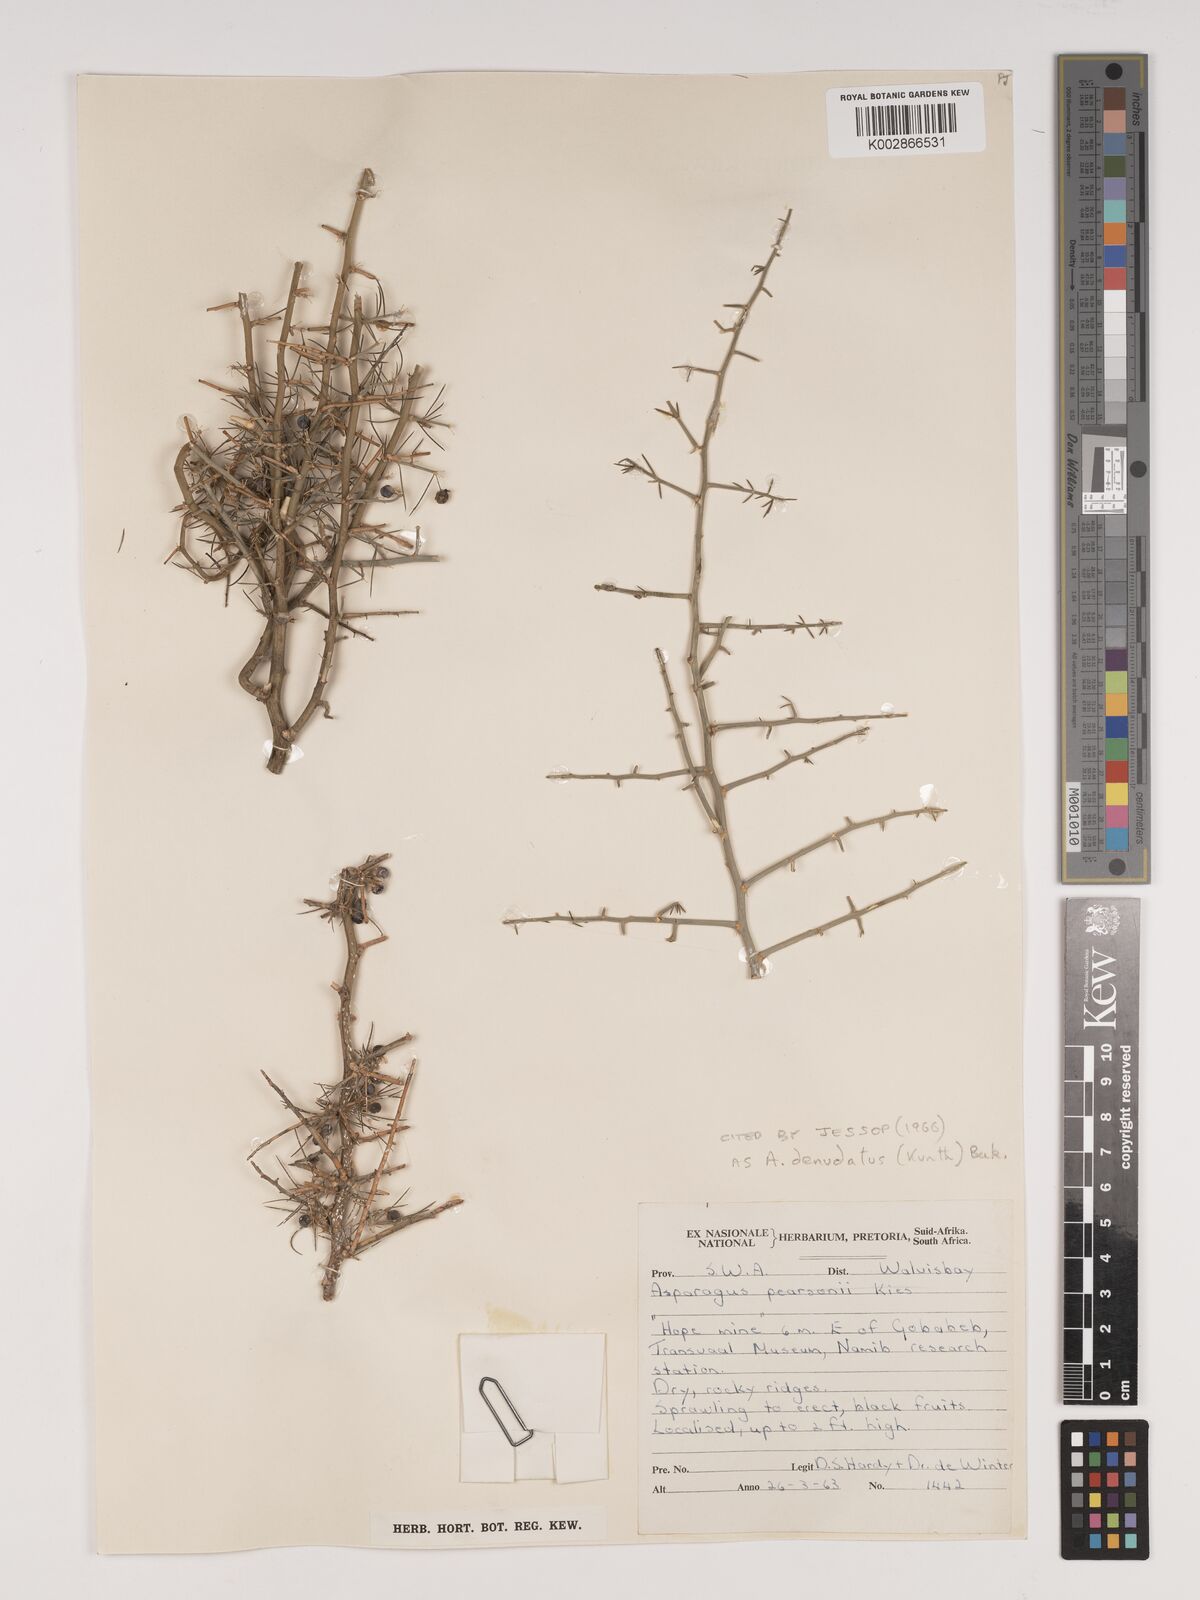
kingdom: Plantae
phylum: Tracheophyta
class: Liliopsida
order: Asparagales
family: Asparagaceae
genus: Asparagus
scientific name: Asparagus denudatus
